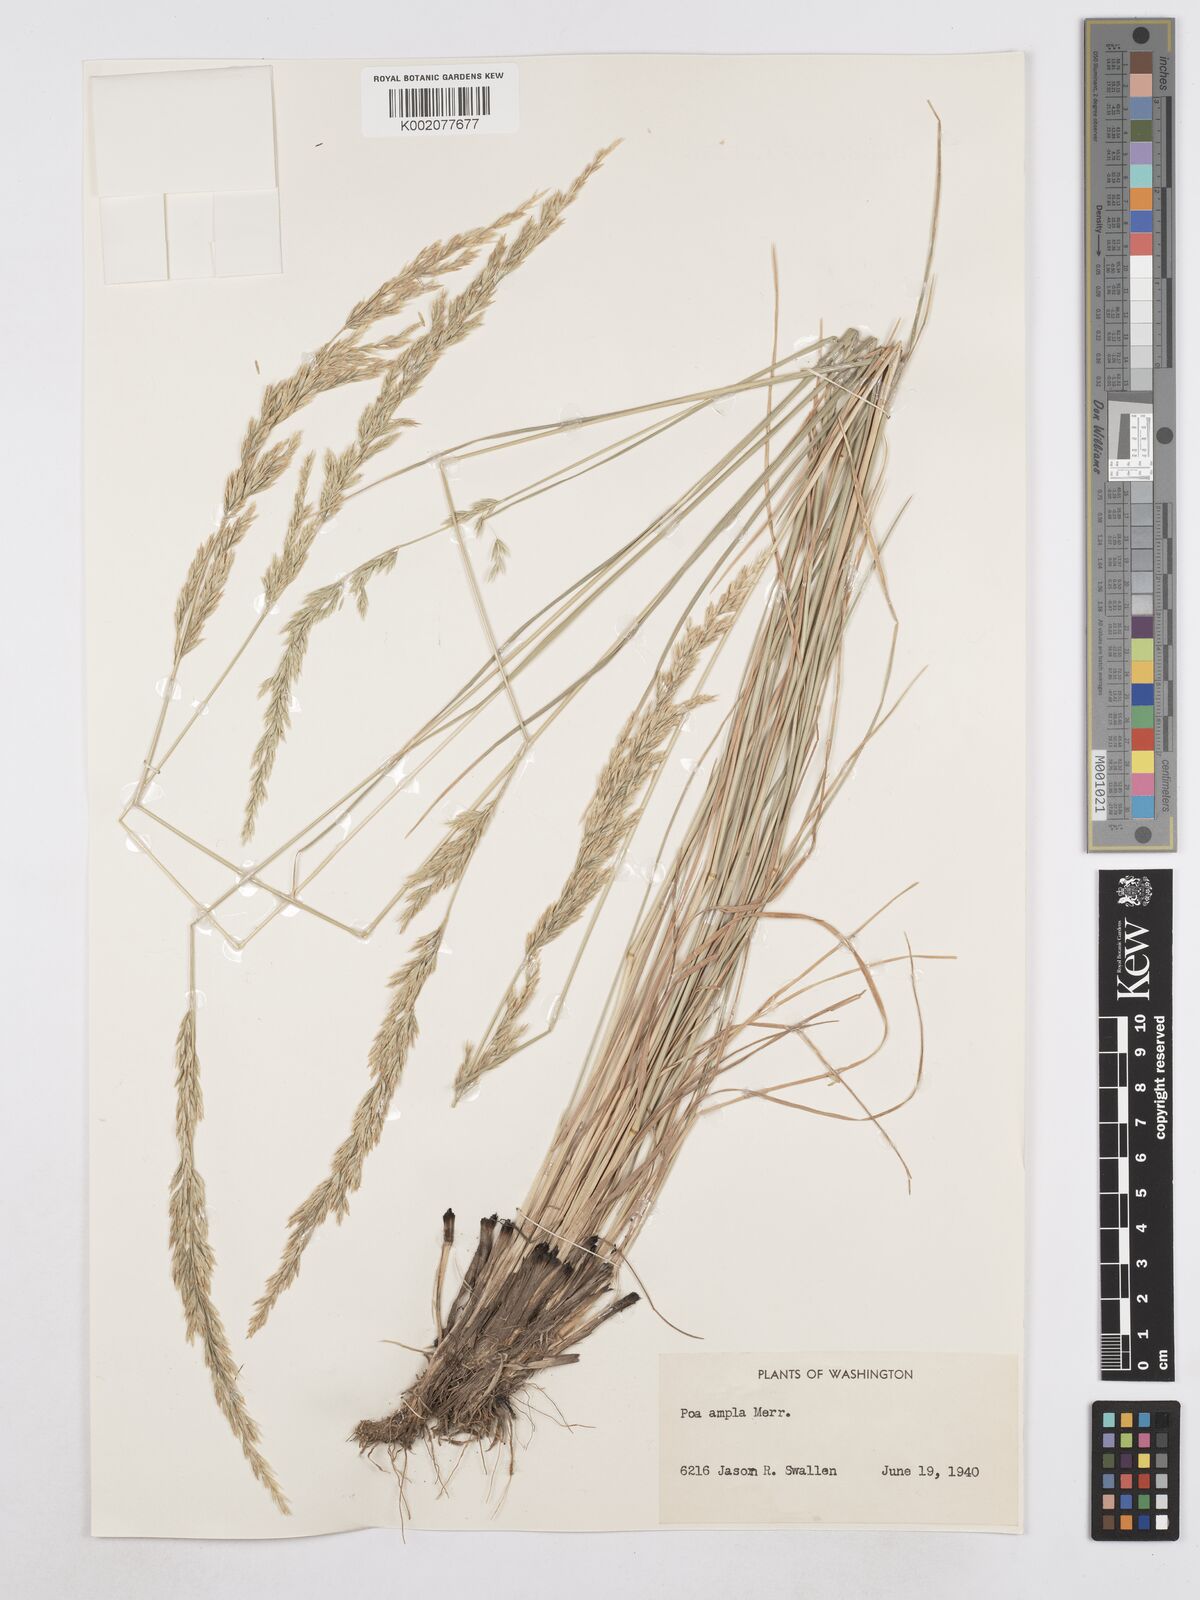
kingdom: Plantae
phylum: Tracheophyta
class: Liliopsida
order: Poales
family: Poaceae
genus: Poa
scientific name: Poa secunda
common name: Sandberg bluegrass
